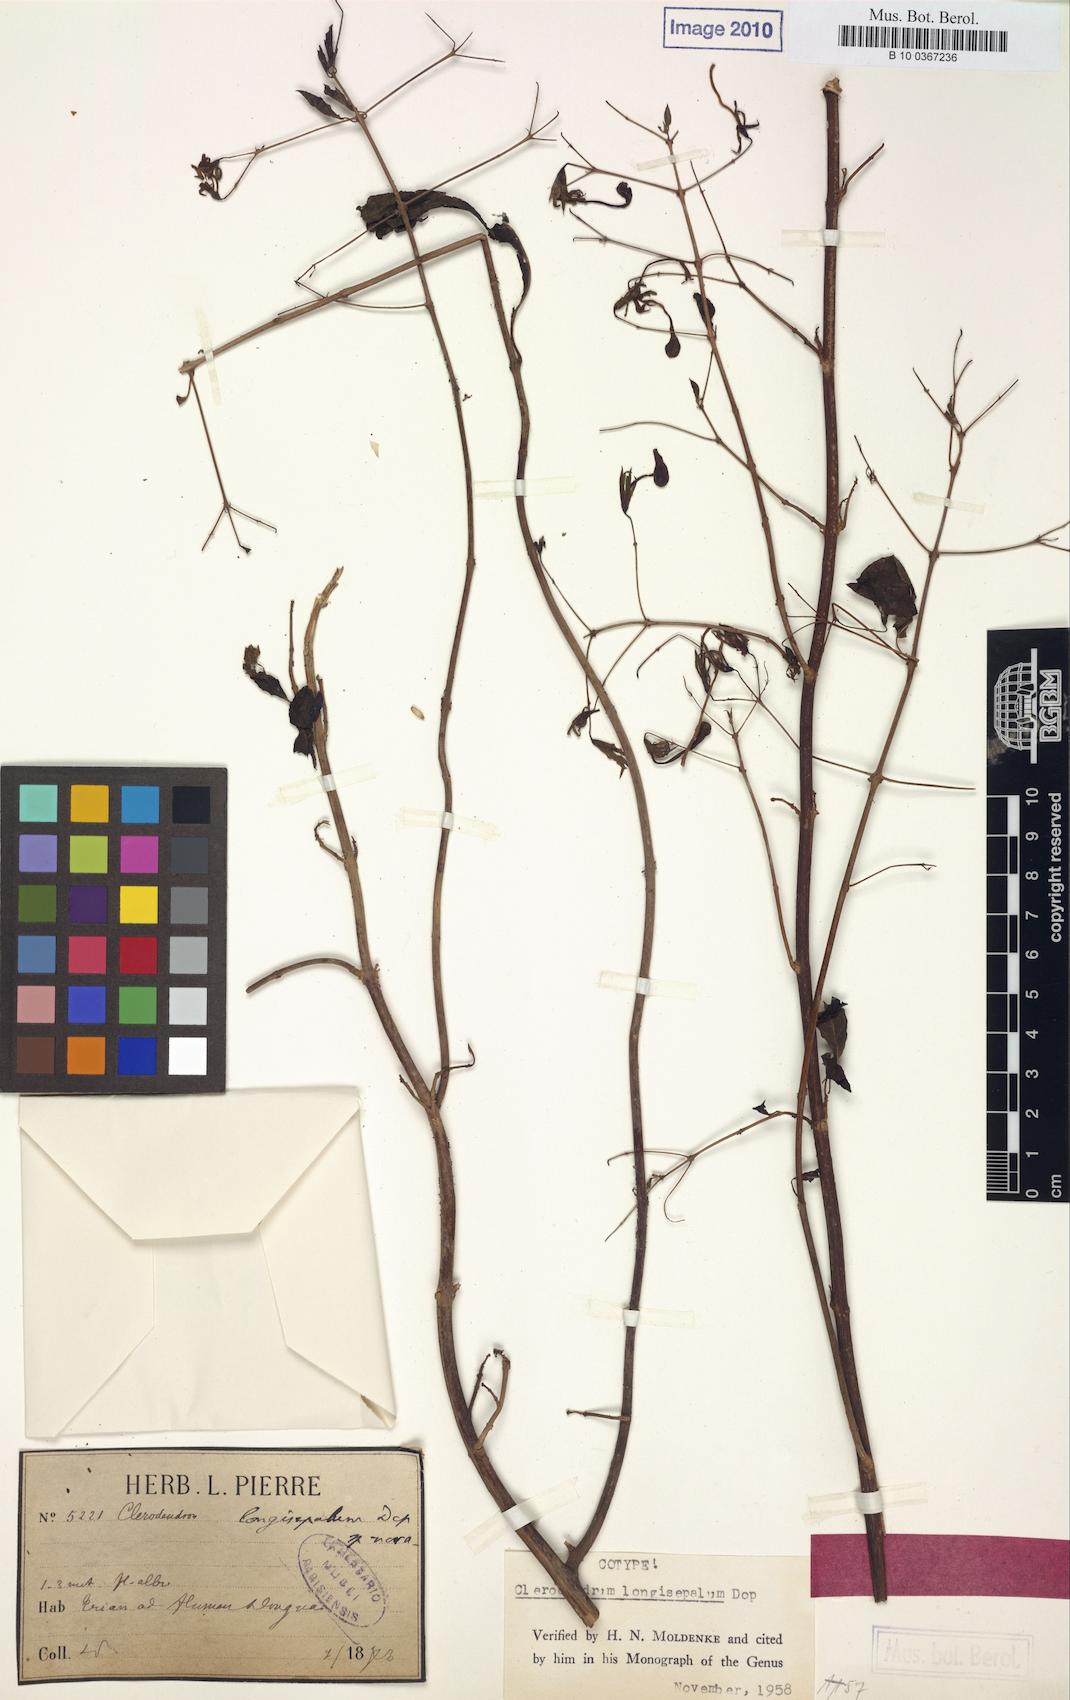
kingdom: Plantae
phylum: Tracheophyta
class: Magnoliopsida
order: Lamiales
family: Lamiaceae
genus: Clerodendrum
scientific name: Clerodendrum longisepalum
